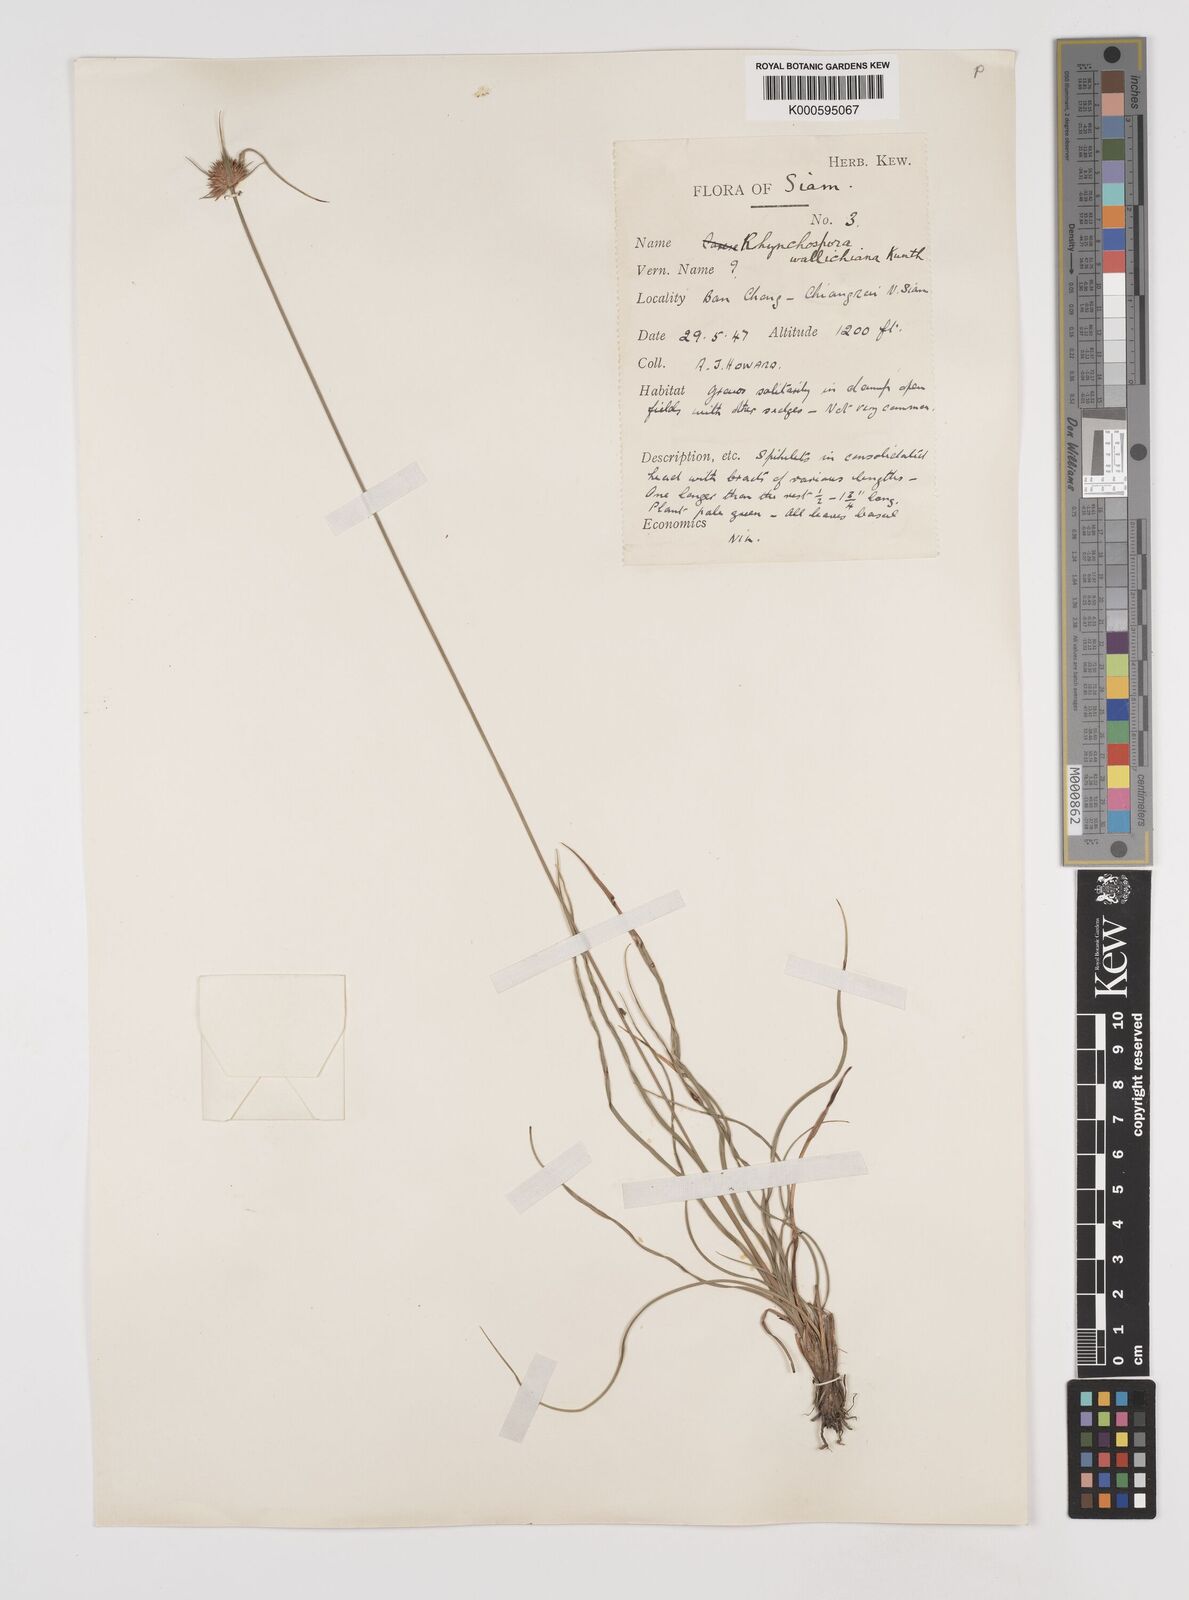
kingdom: Plantae
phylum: Tracheophyta
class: Liliopsida
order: Poales
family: Cyperaceae
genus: Rhynchospora
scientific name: Rhynchospora rubra
